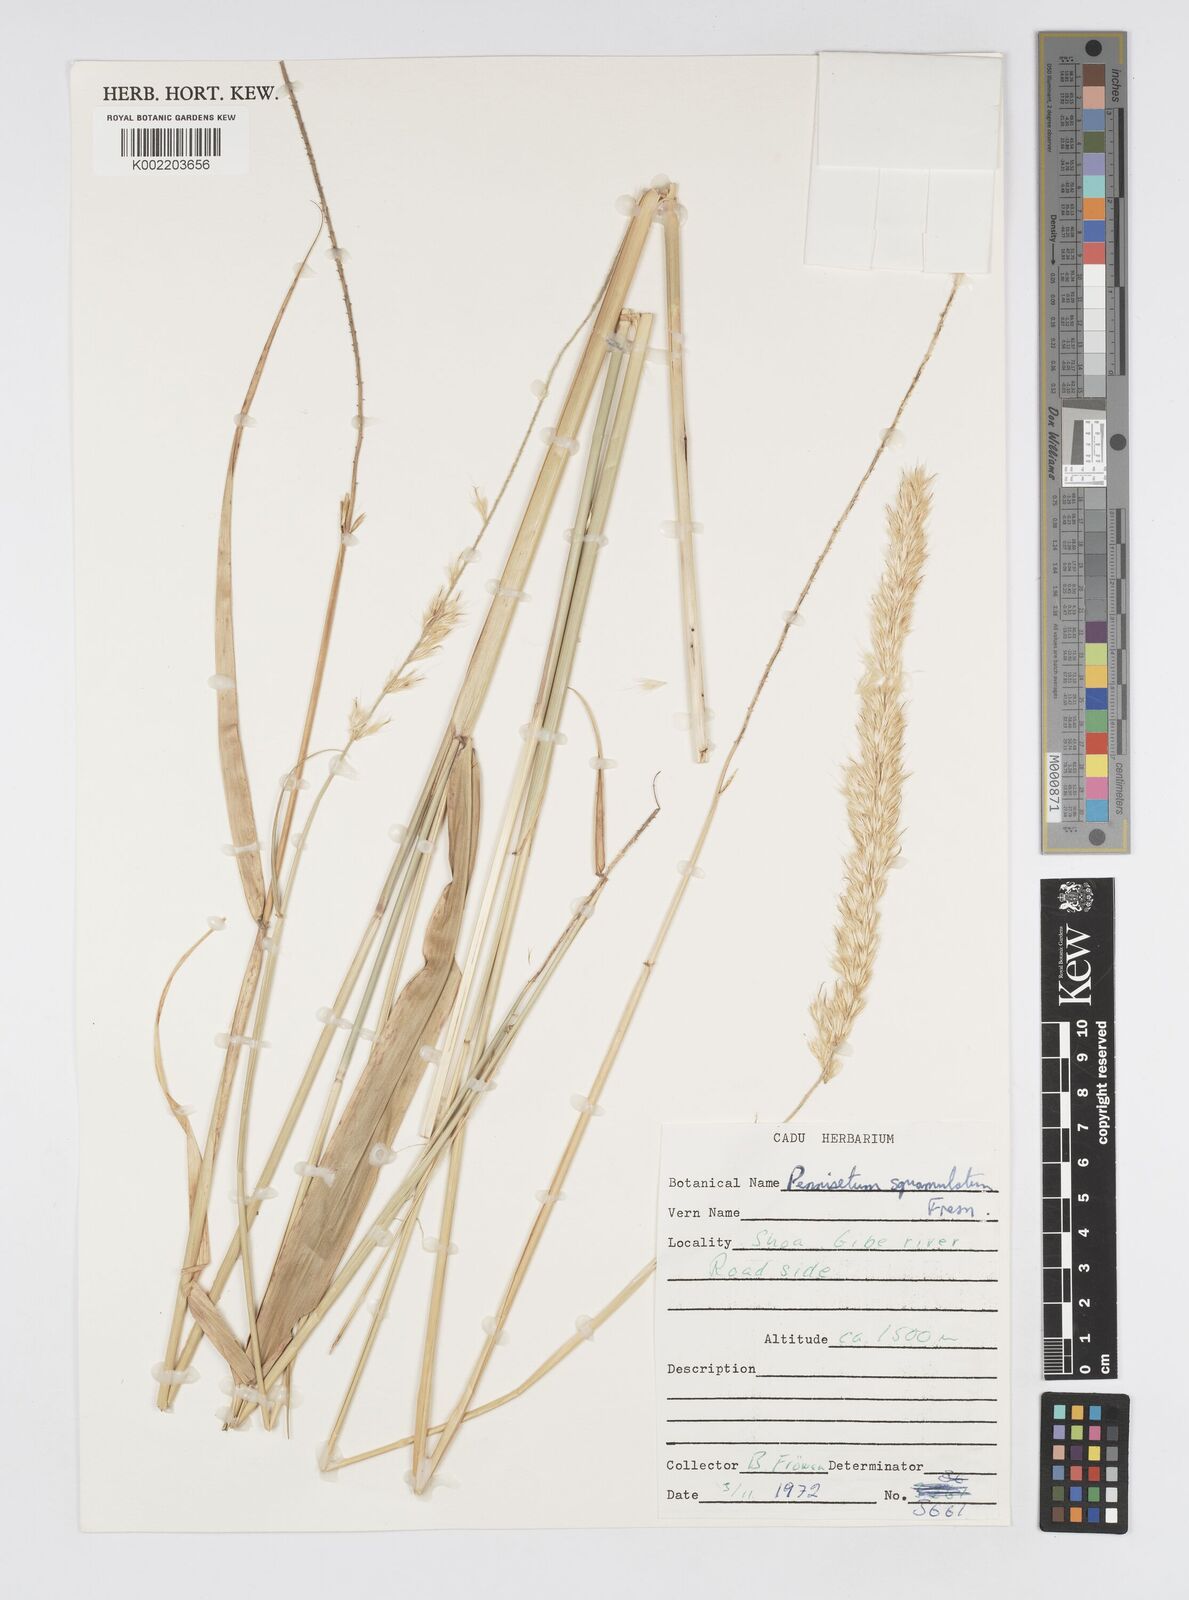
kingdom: Plantae
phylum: Tracheophyta
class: Liliopsida
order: Poales
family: Poaceae
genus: Cenchrus
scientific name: Cenchrus squamulatus
